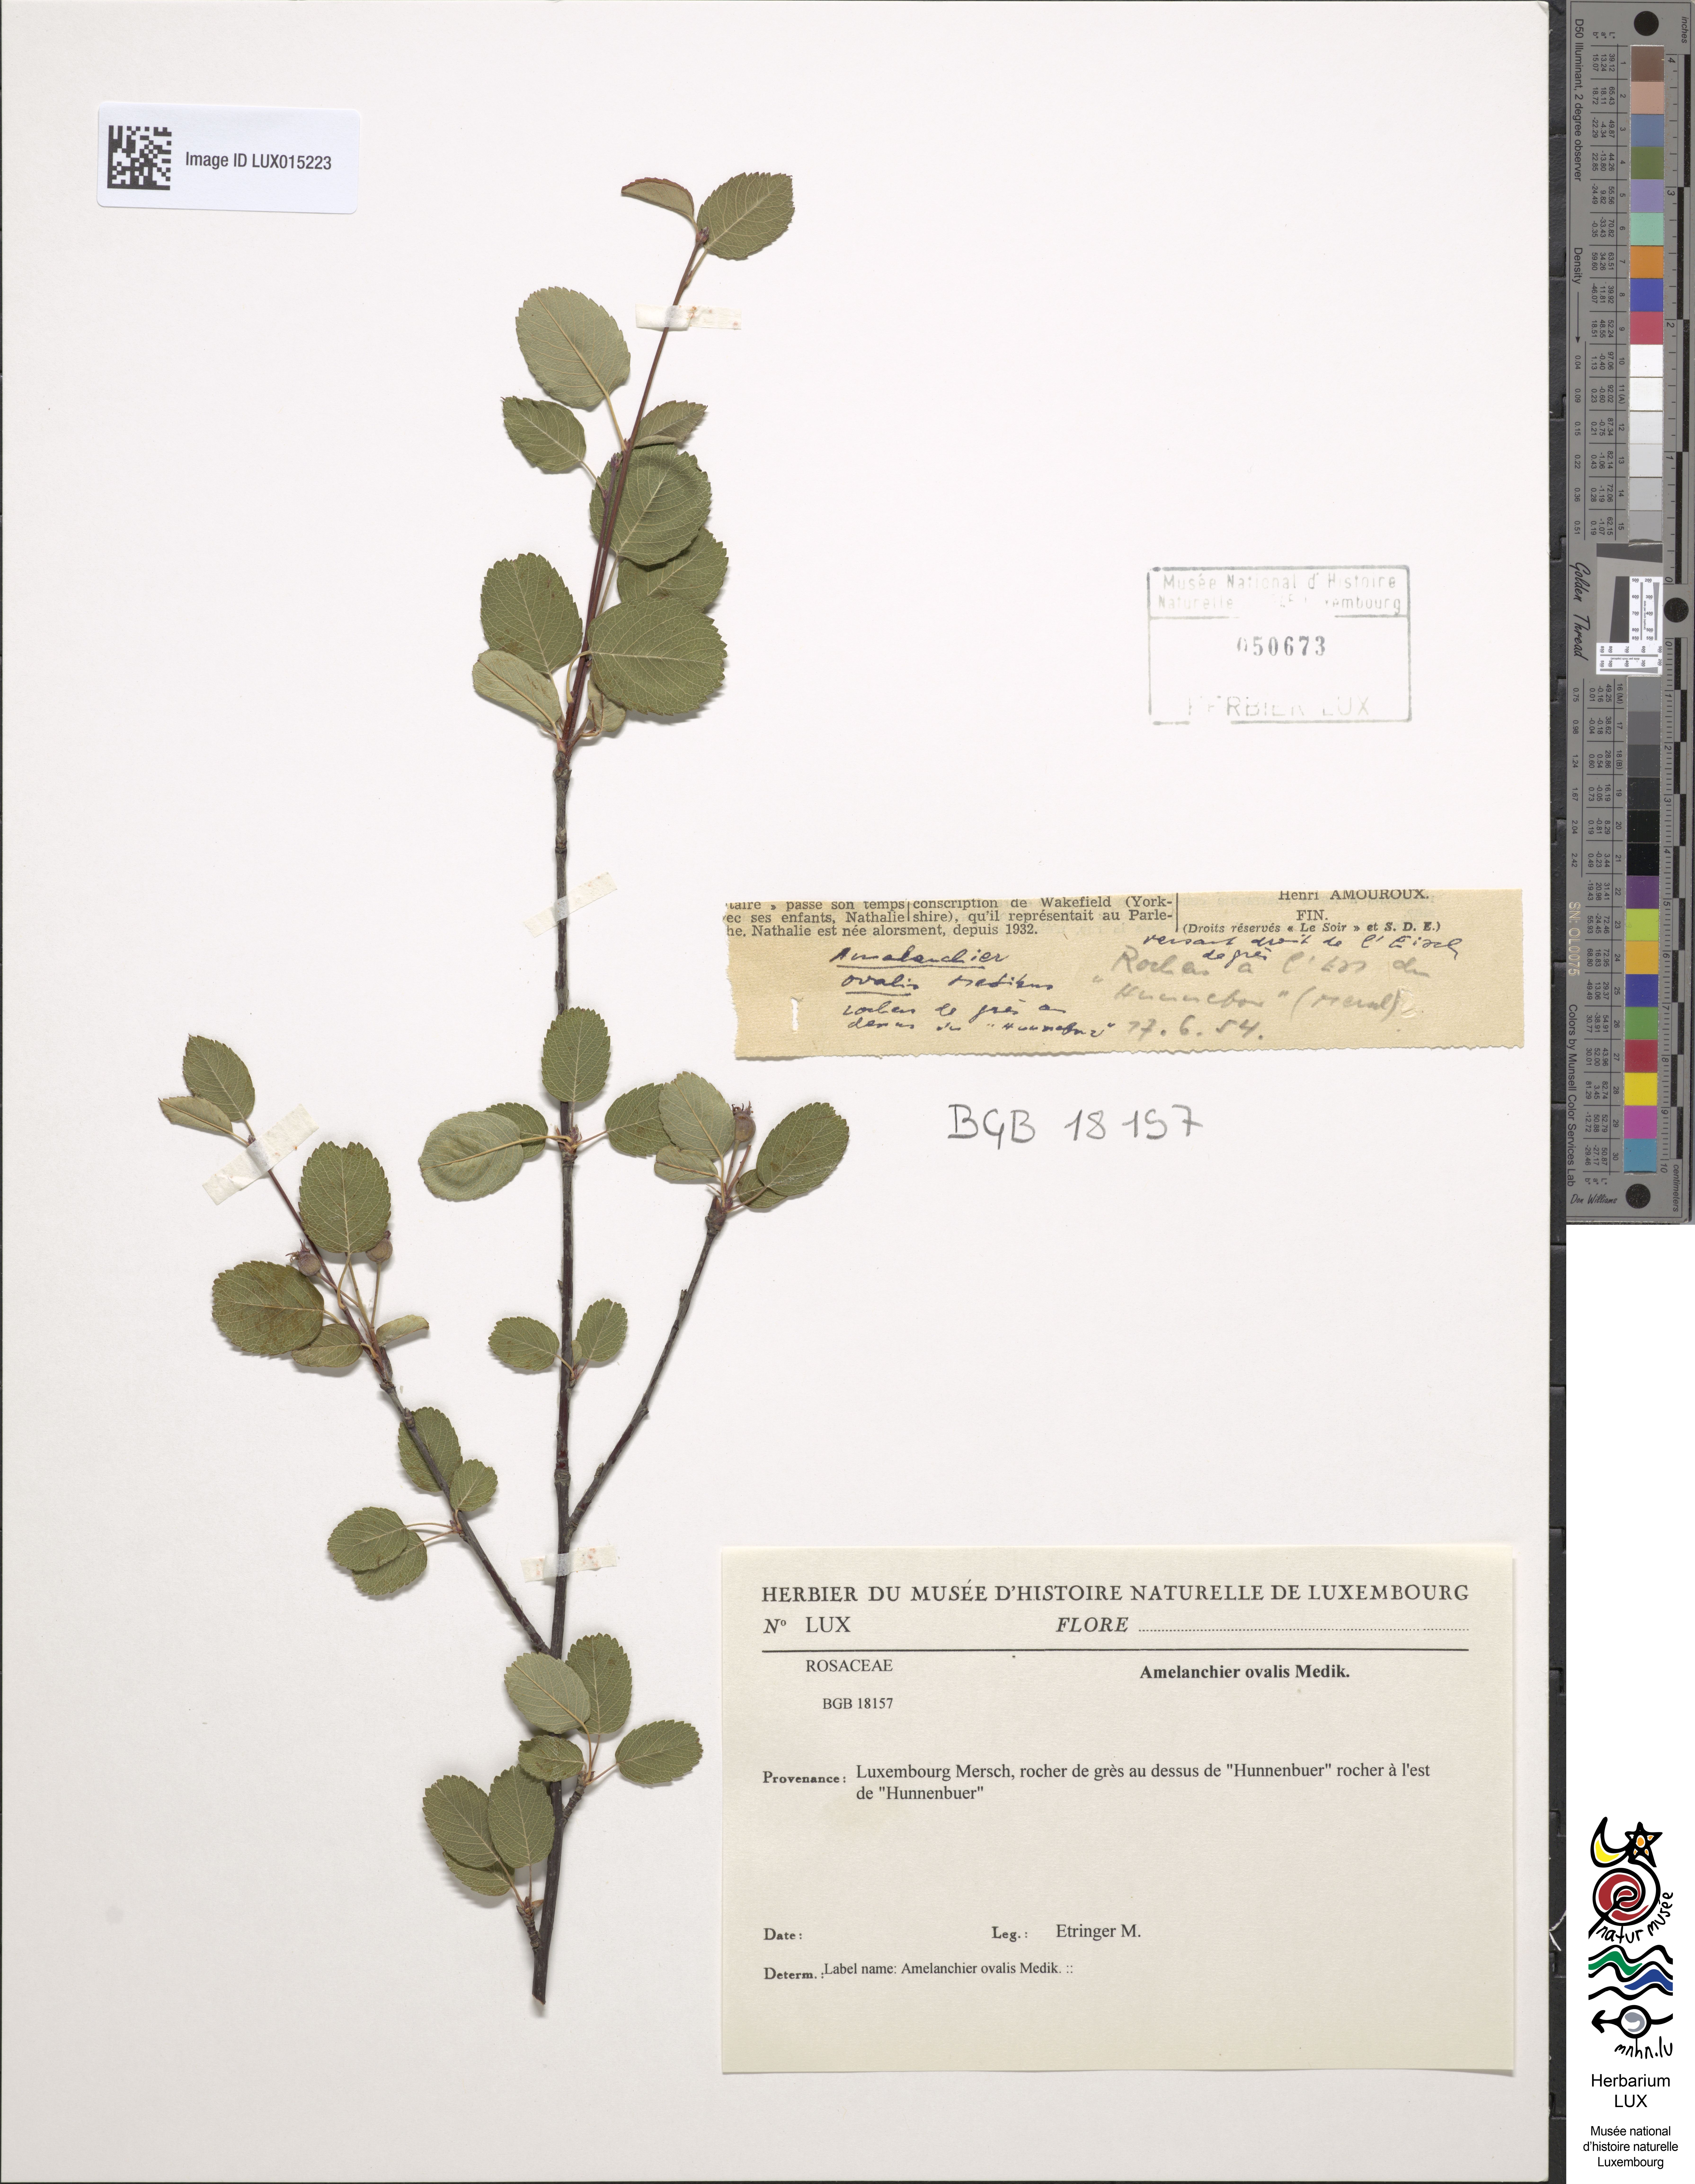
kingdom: Plantae
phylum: Tracheophyta
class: Magnoliopsida
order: Rosales
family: Rosaceae
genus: Amelanchier
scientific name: Amelanchier ovalis
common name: Serviceberry
